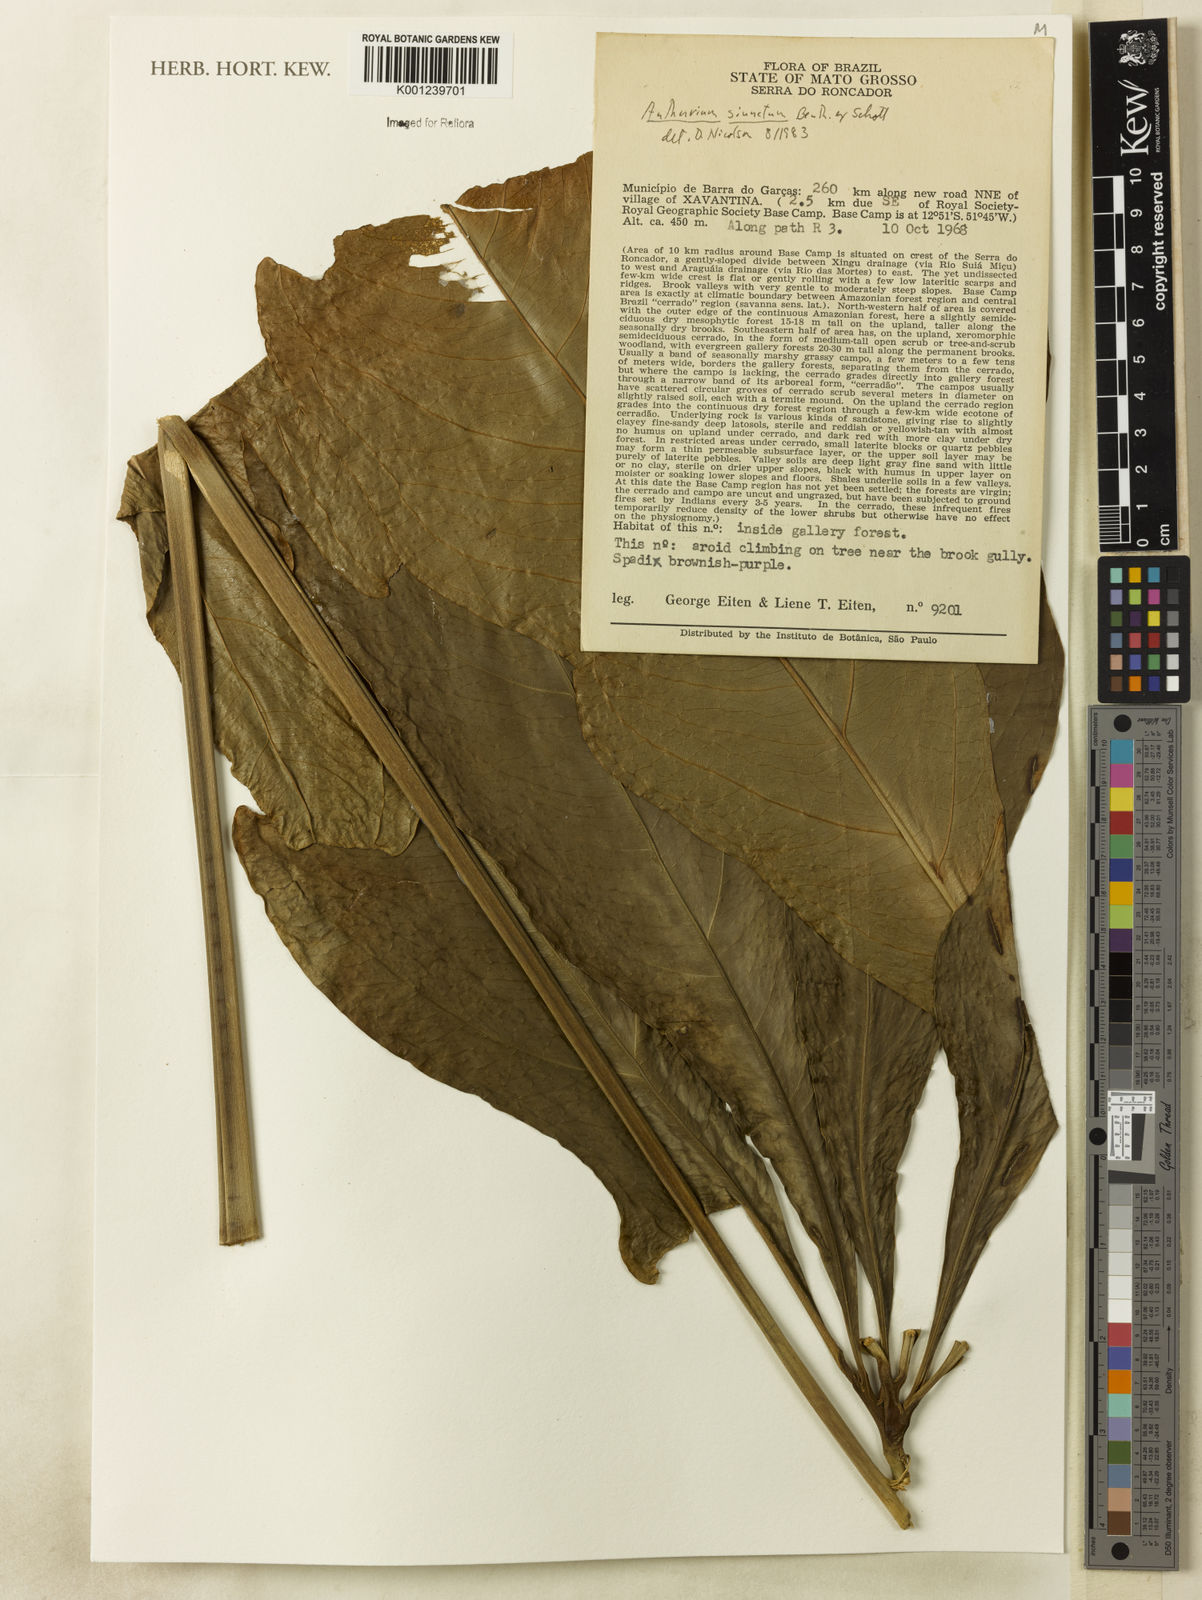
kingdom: Plantae
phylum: Tracheophyta
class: Liliopsida
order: Alismatales
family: Araceae
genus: Anthurium
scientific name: Anthurium sinuatum
